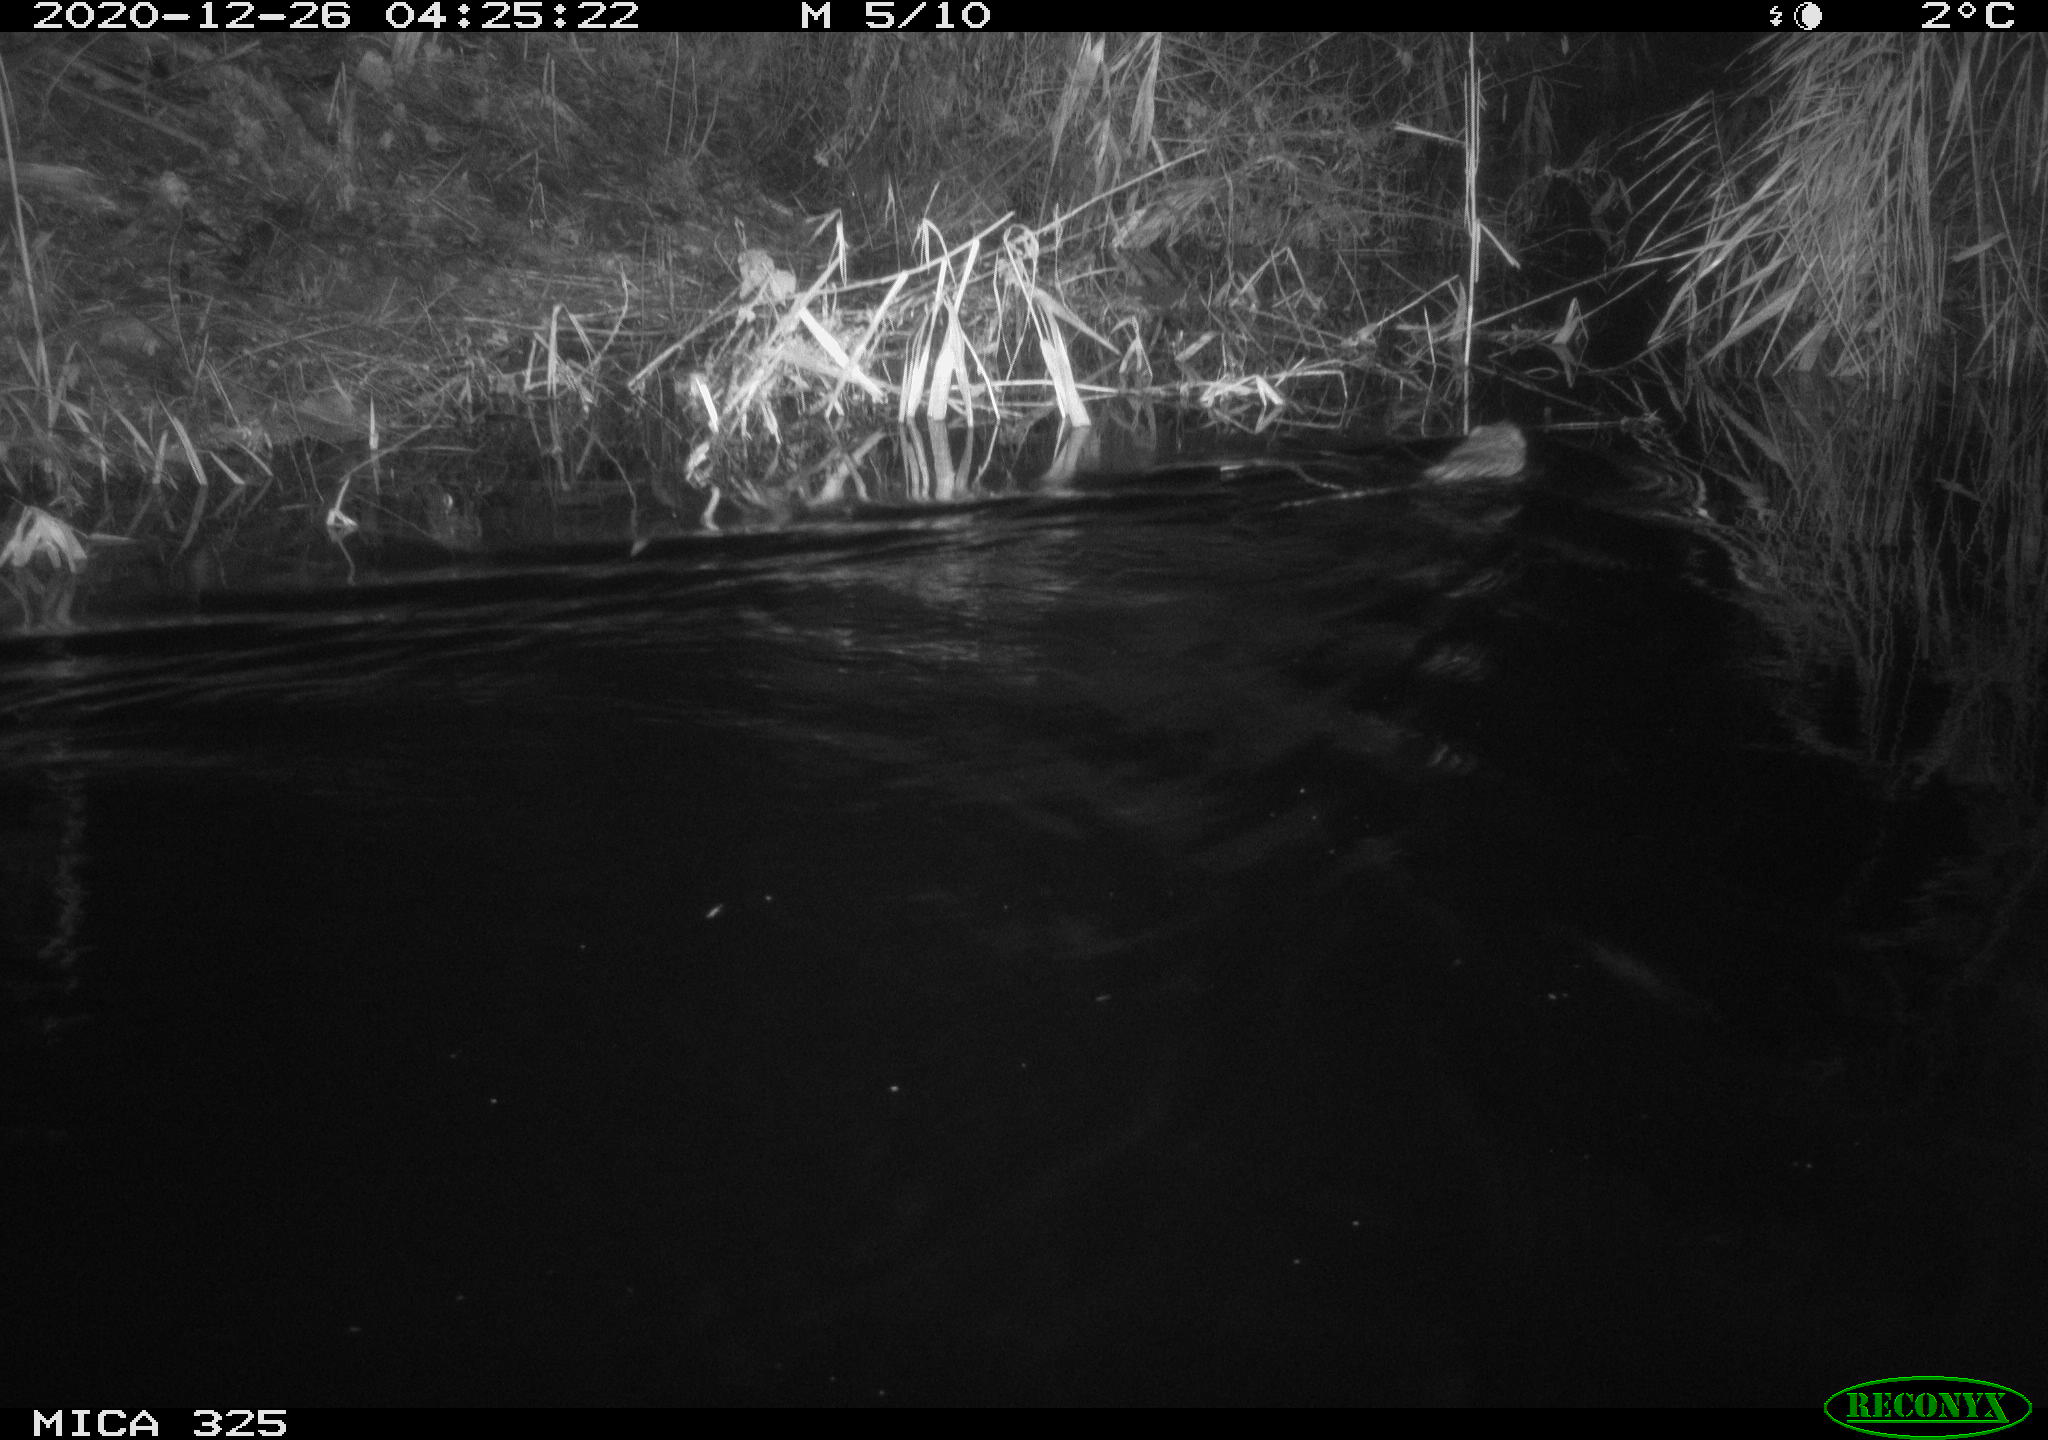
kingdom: Animalia
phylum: Chordata
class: Mammalia
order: Rodentia
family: Cricetidae
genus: Ondatra
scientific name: Ondatra zibethicus
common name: Muskrat
